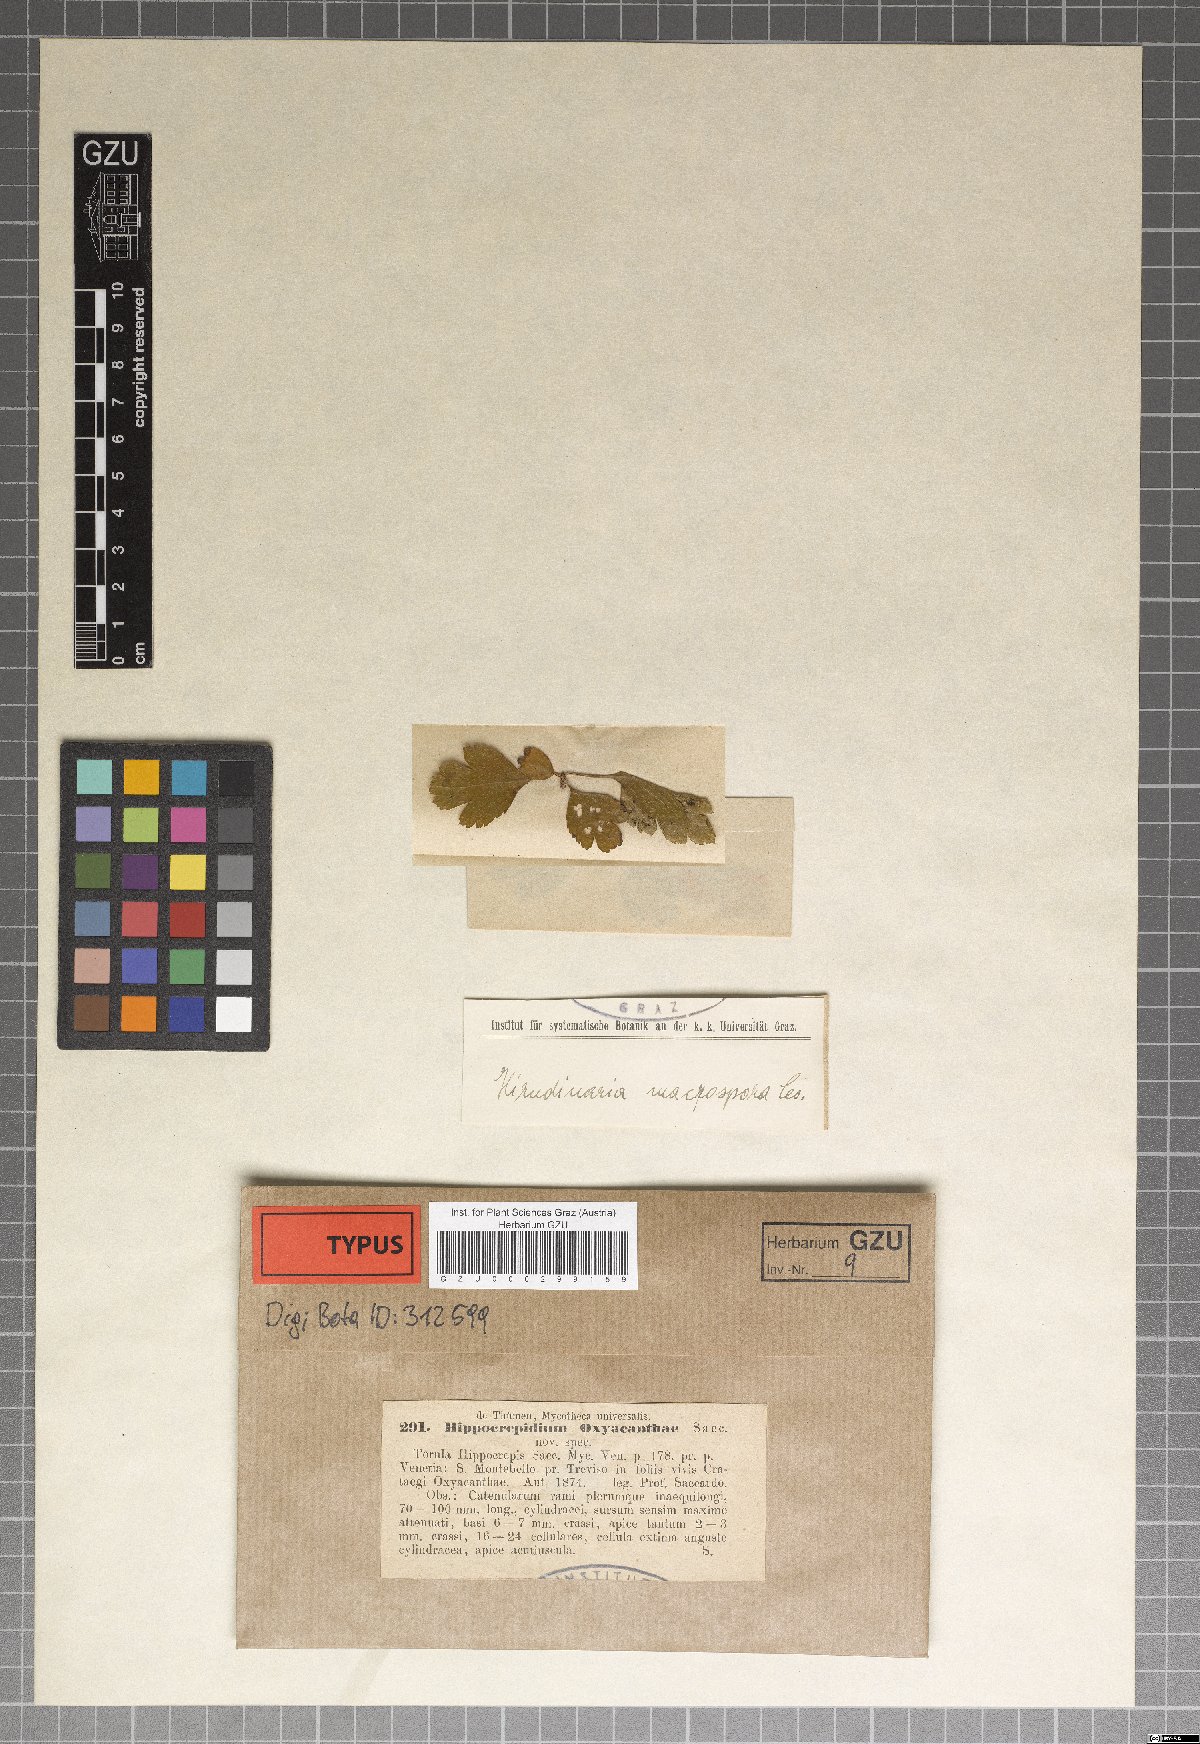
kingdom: Fungi
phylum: Ascomycota
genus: Hirudinaria
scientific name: Hirudinaria
